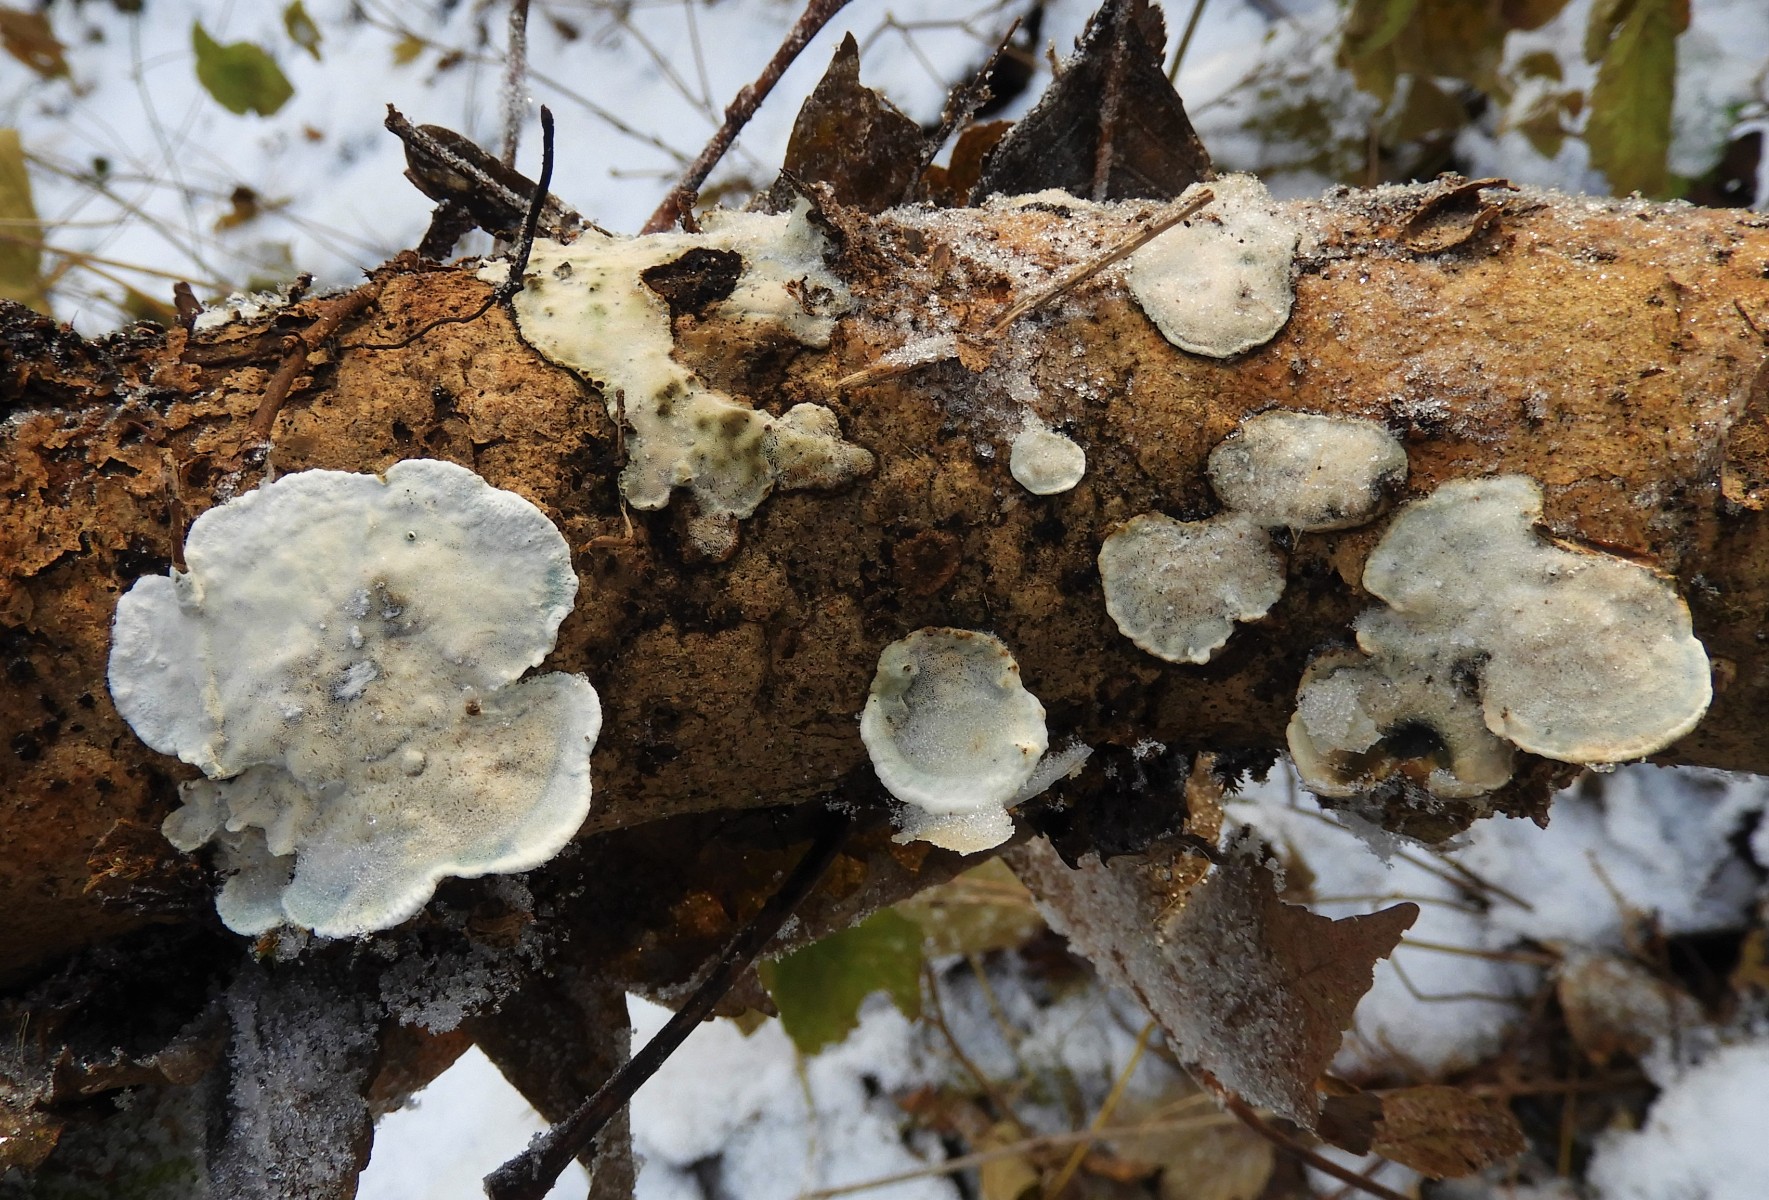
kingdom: Fungi
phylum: Basidiomycota
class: Agaricomycetes
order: Polyporales
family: Incrustoporiaceae
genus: Skeletocutis
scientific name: Skeletocutis nemoralis
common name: stor krystalporesvamp
